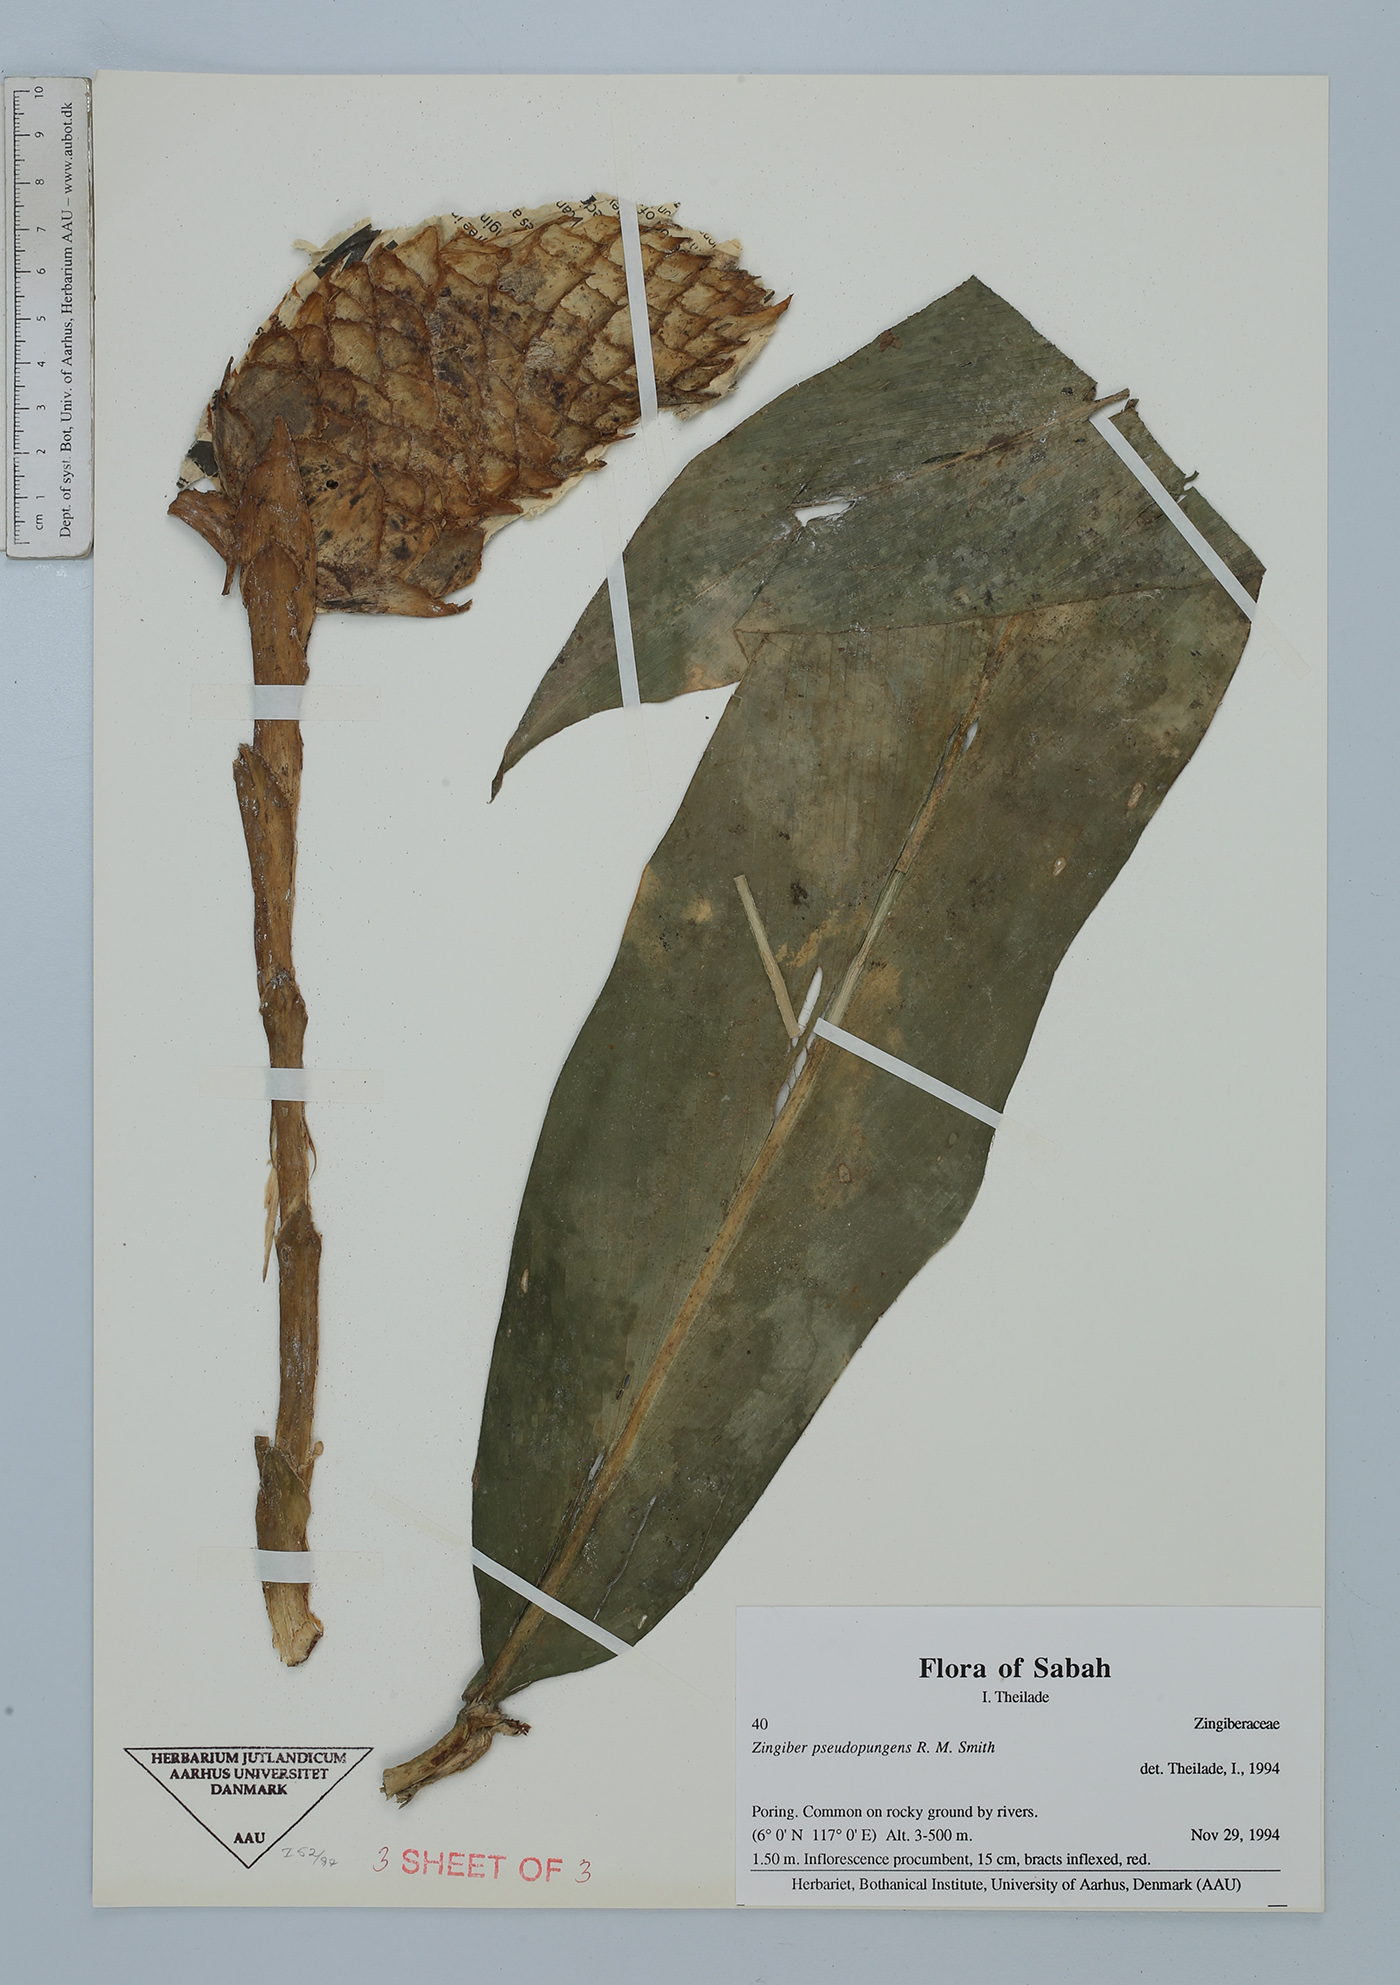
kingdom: Plantae
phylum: Tracheophyta
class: Liliopsida
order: Zingiberales
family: Zingiberaceae
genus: Zingiber
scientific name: Zingiber pseudopungens
